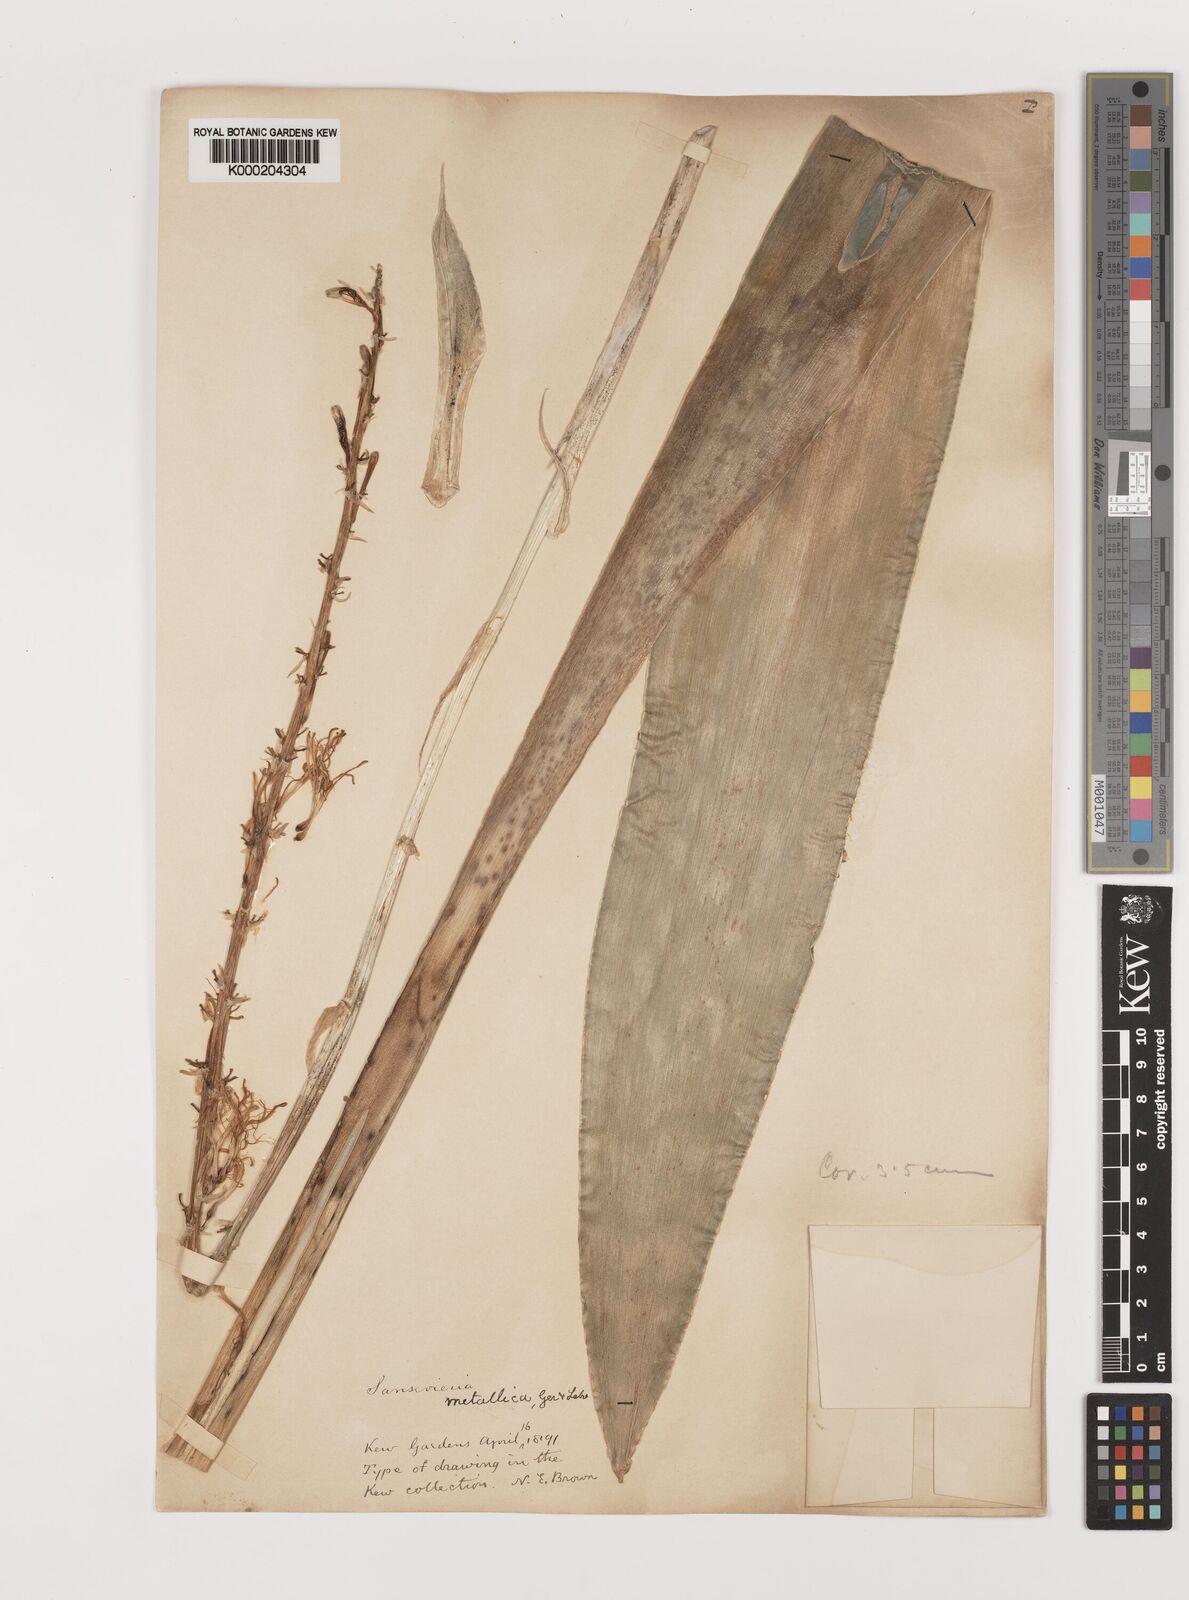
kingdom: Plantae
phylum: Tracheophyta
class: Liliopsida
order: Asparagales
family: Asparagaceae
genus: Dracaena
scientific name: Dracaena
